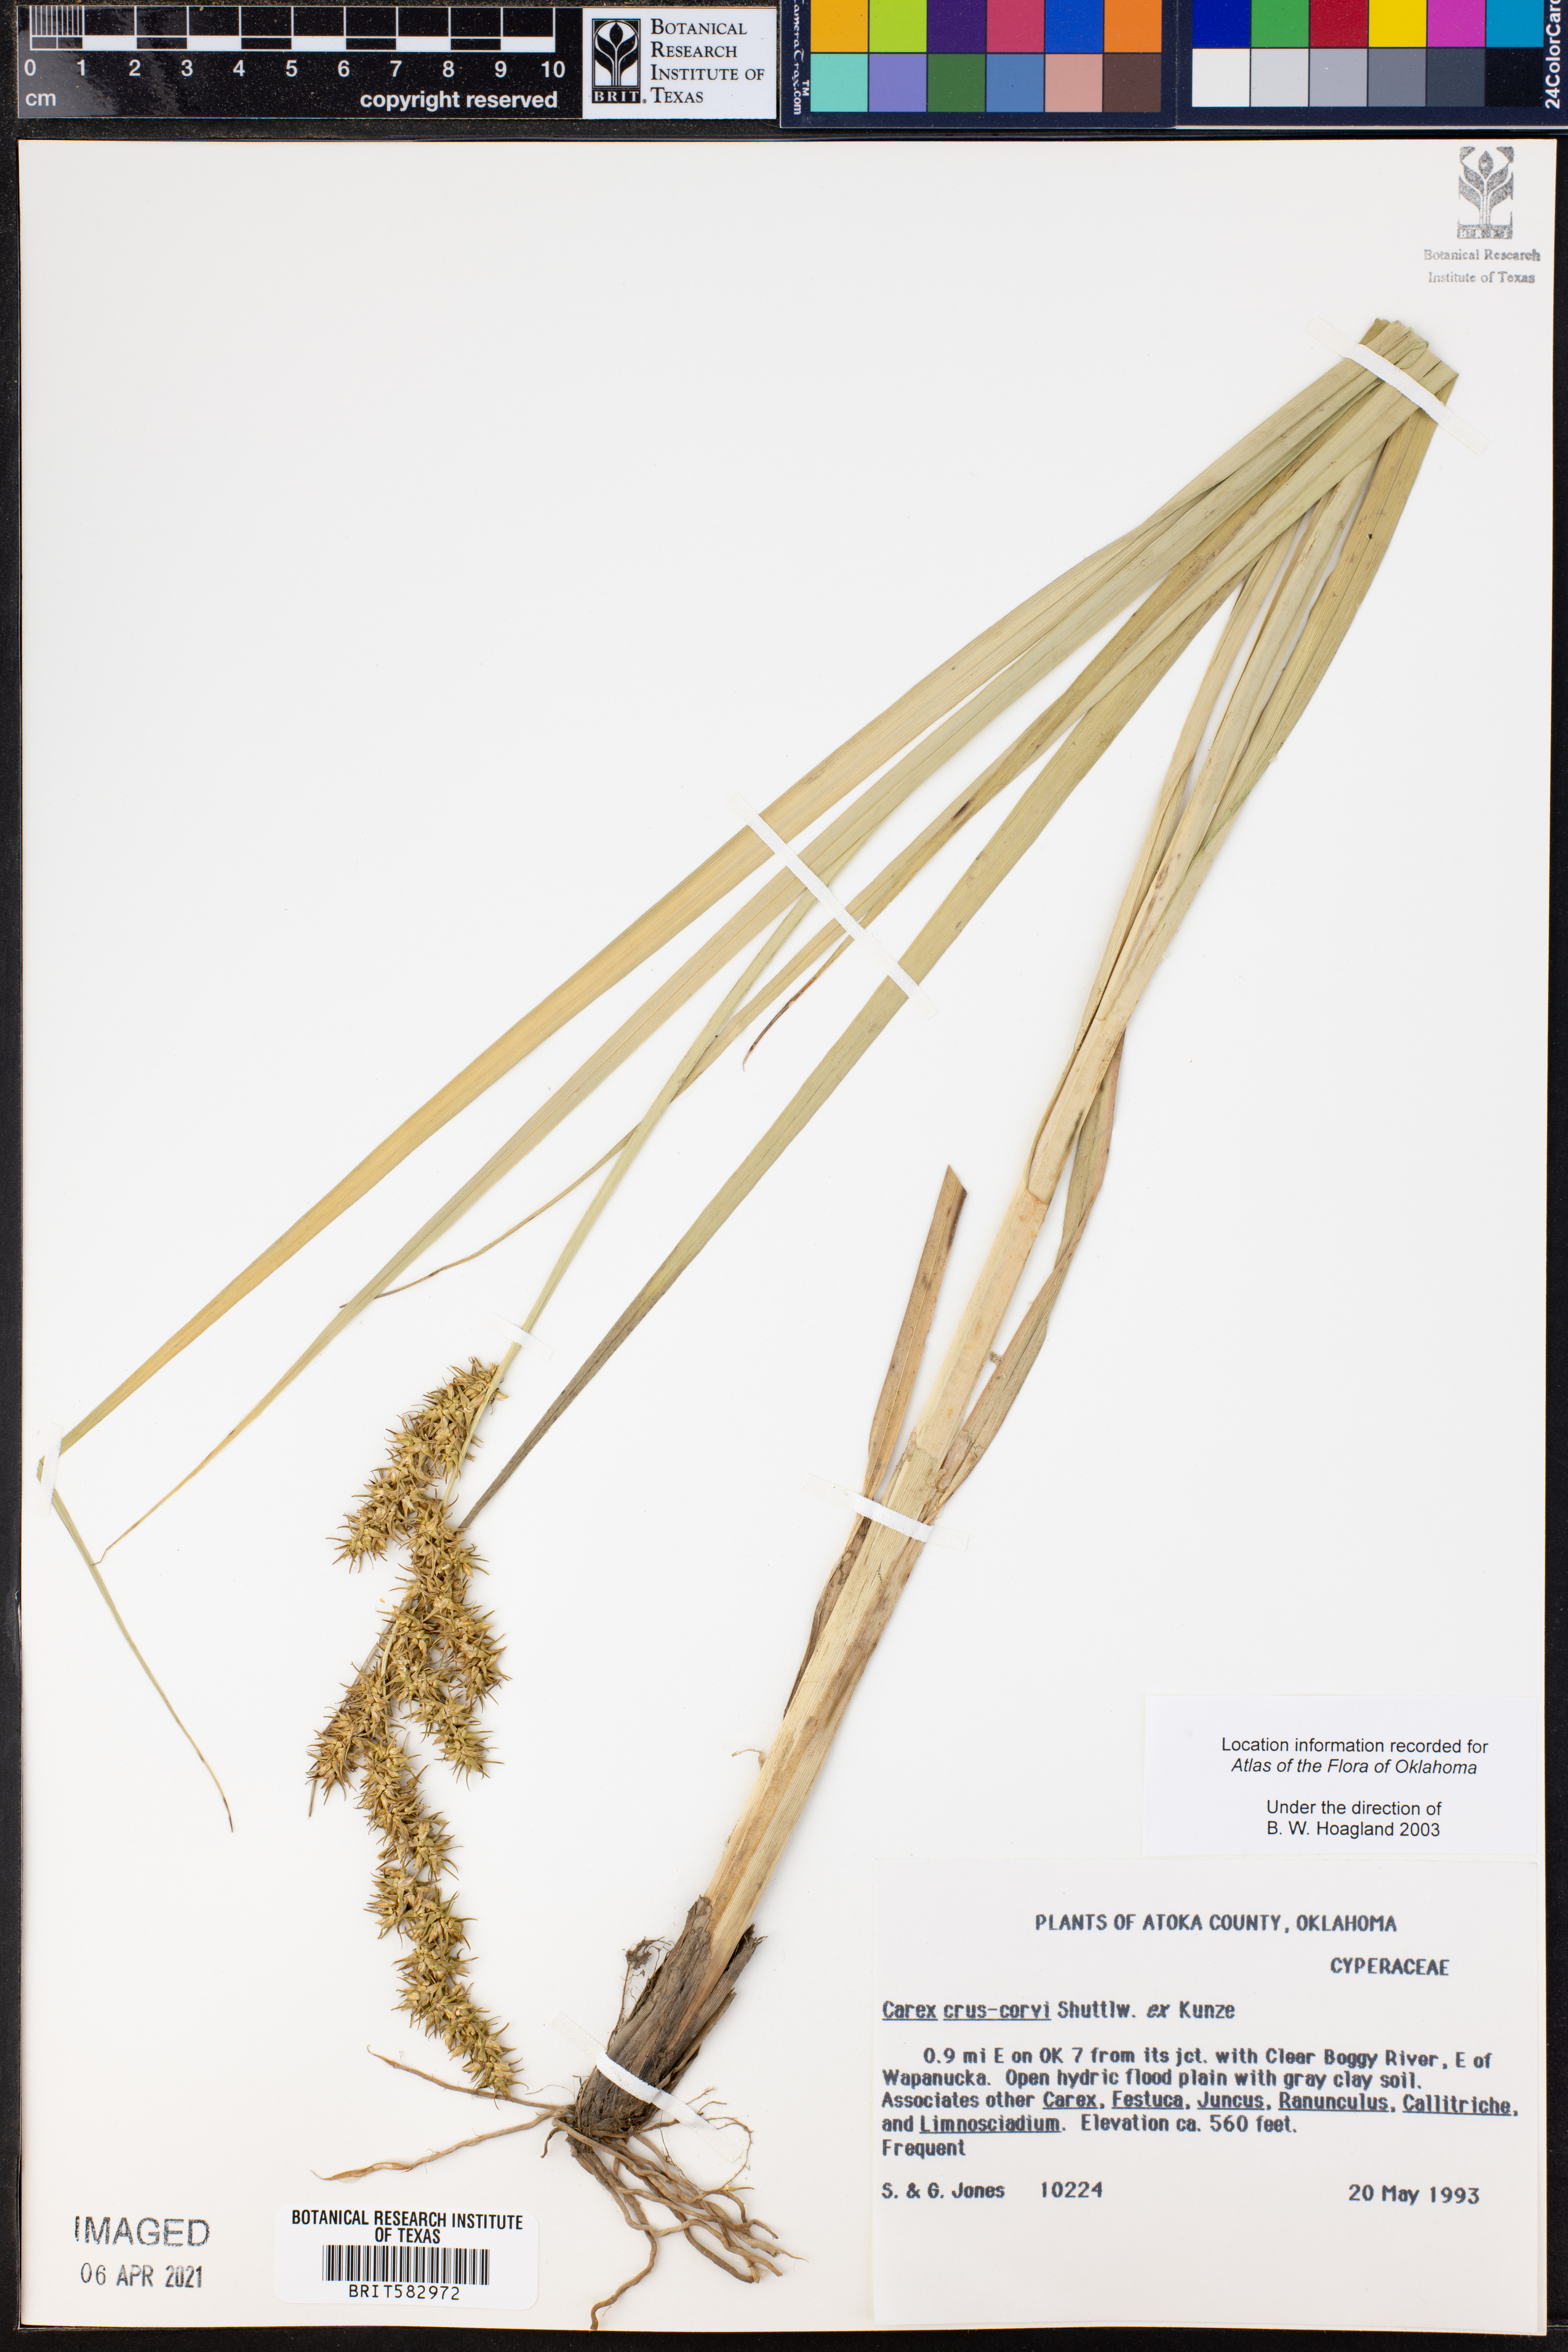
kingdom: Plantae
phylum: Tracheophyta
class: Liliopsida
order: Poales
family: Cyperaceae
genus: Carex
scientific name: Carex crus-corvi
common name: Crow-spur sedge
